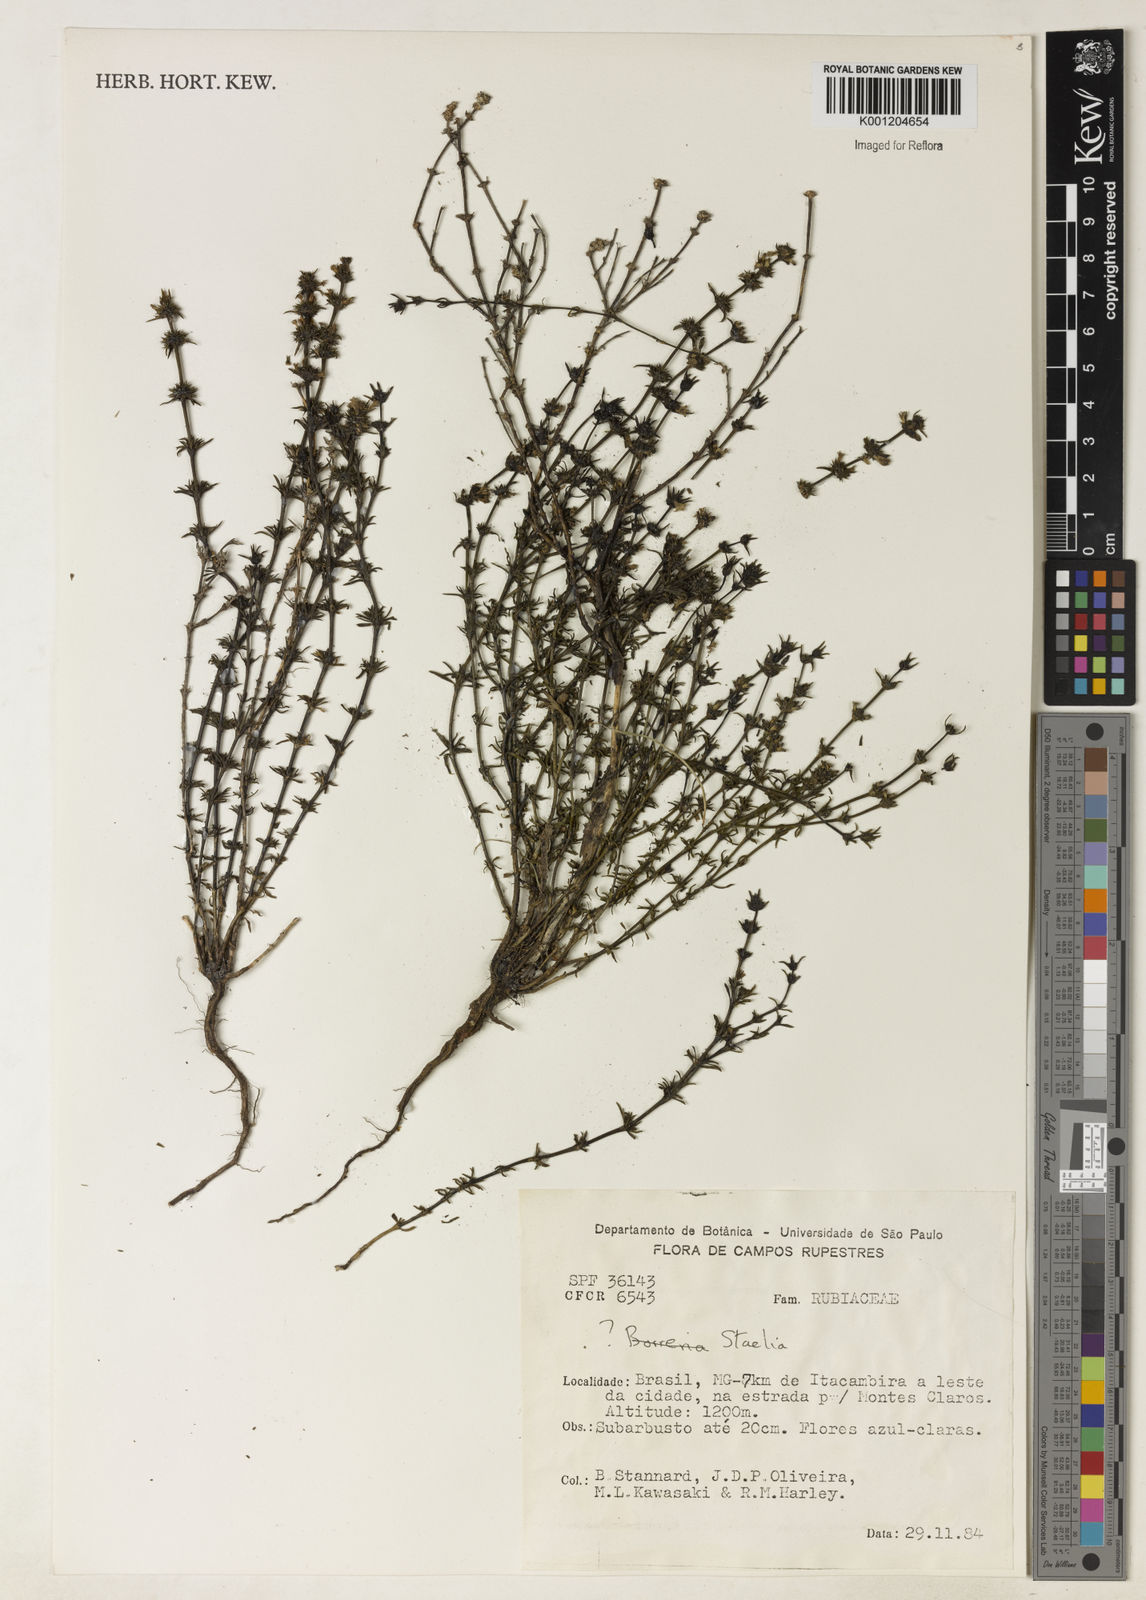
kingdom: Plantae
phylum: Tracheophyta
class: Magnoliopsida
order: Gentianales
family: Rubiaceae
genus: Staelia
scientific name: Staelia
